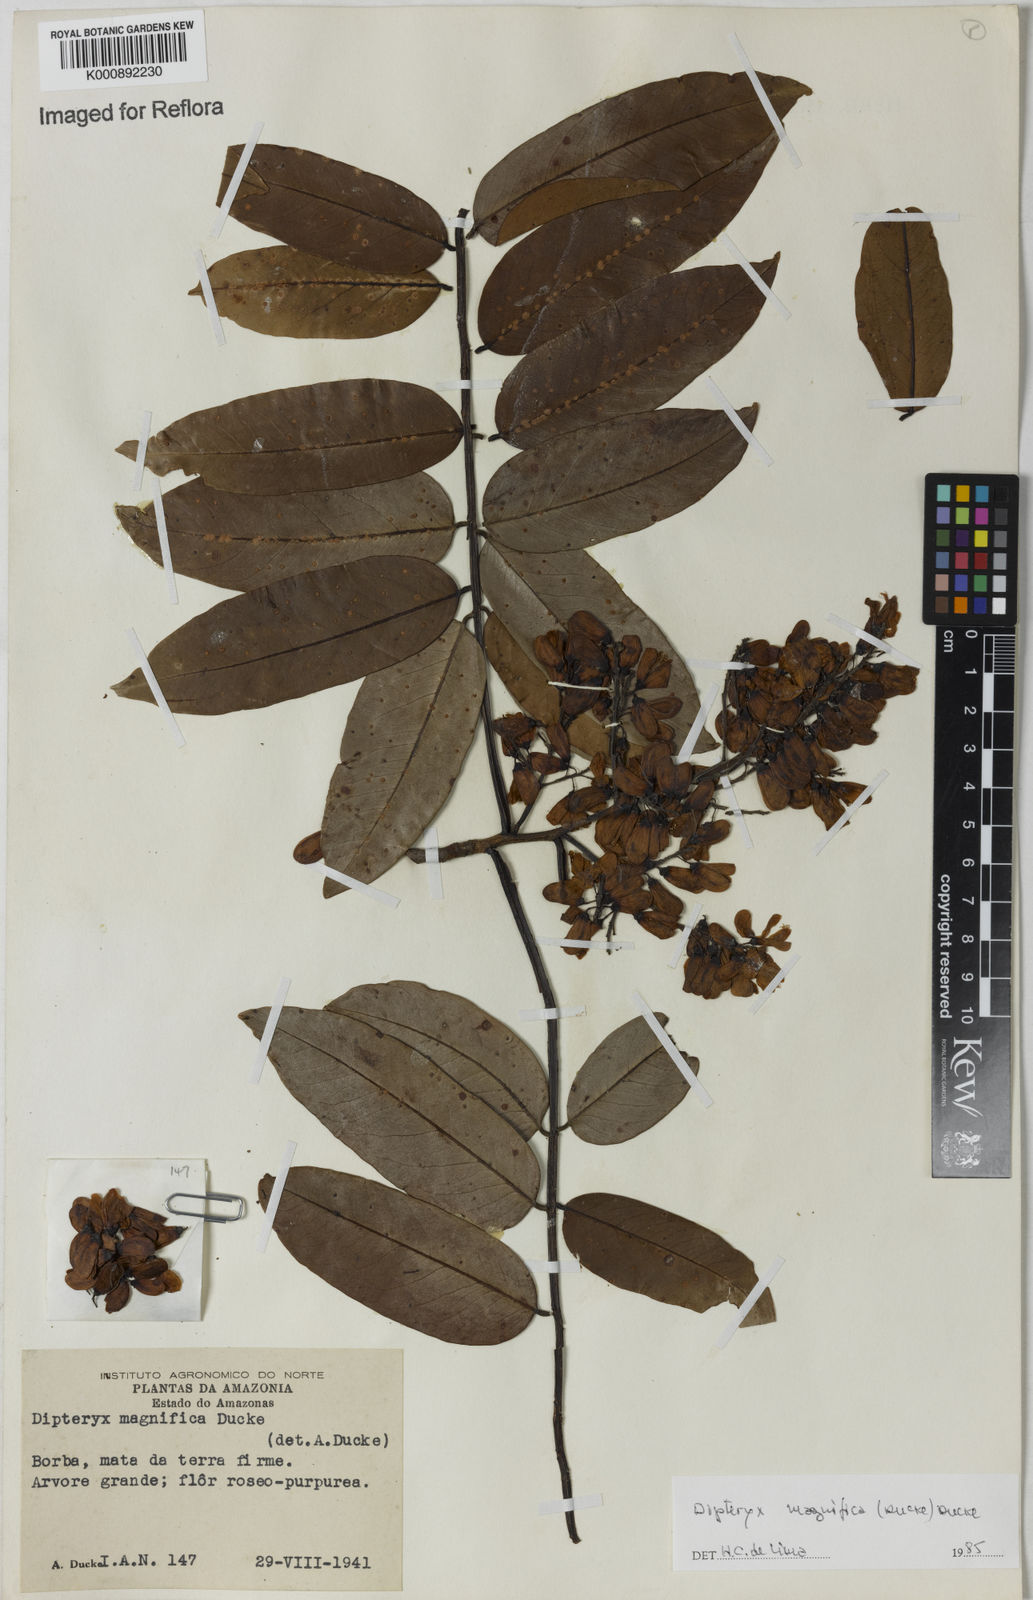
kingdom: Plantae
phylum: Tracheophyta
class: Magnoliopsida
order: Fabales
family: Fabaceae
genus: Dipteryx
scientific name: Dipteryx magnifica
